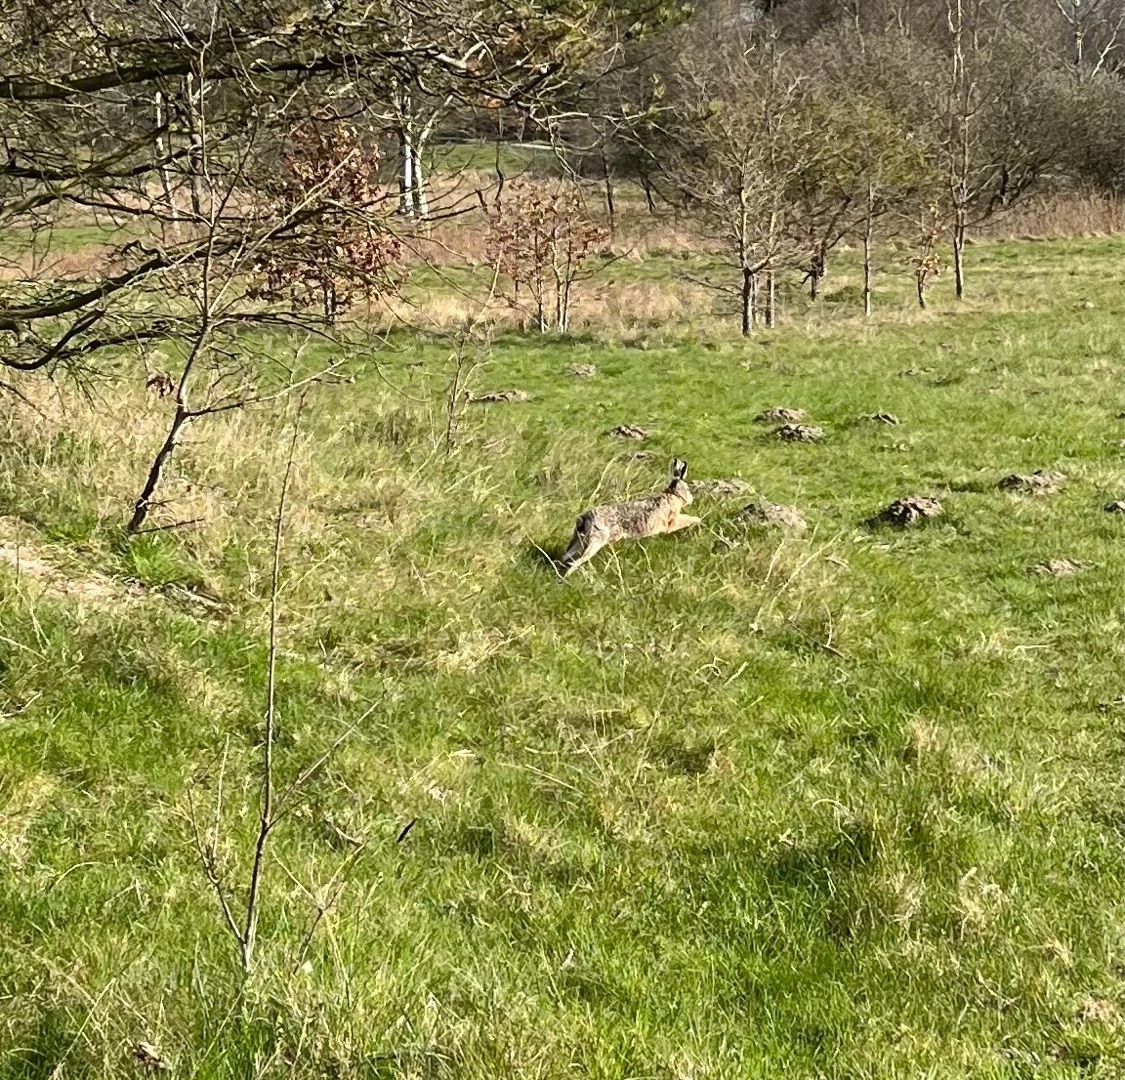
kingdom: Animalia
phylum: Chordata
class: Mammalia
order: Lagomorpha
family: Leporidae
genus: Lepus
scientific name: Lepus europaeus
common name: Hare
